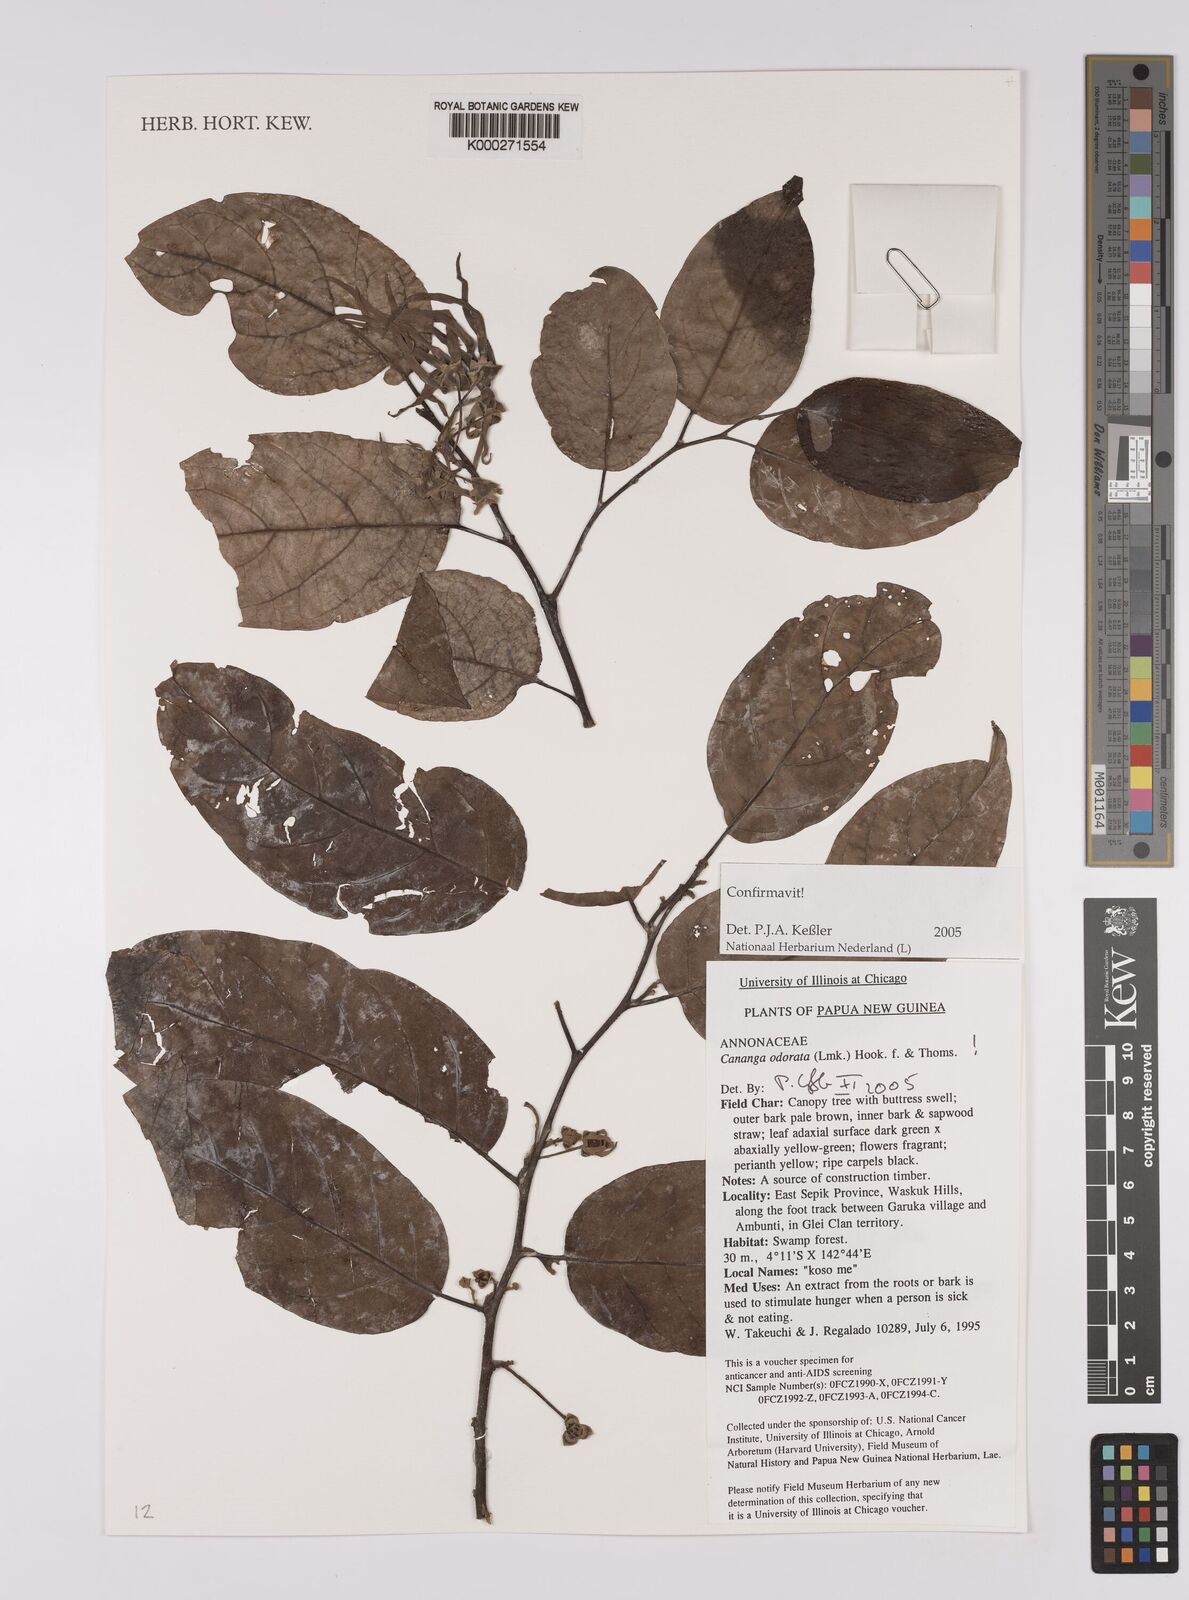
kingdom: Plantae
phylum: Tracheophyta
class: Magnoliopsida
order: Magnoliales
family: Annonaceae
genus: Cananga
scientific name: Cananga odorata
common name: Cananga tree
